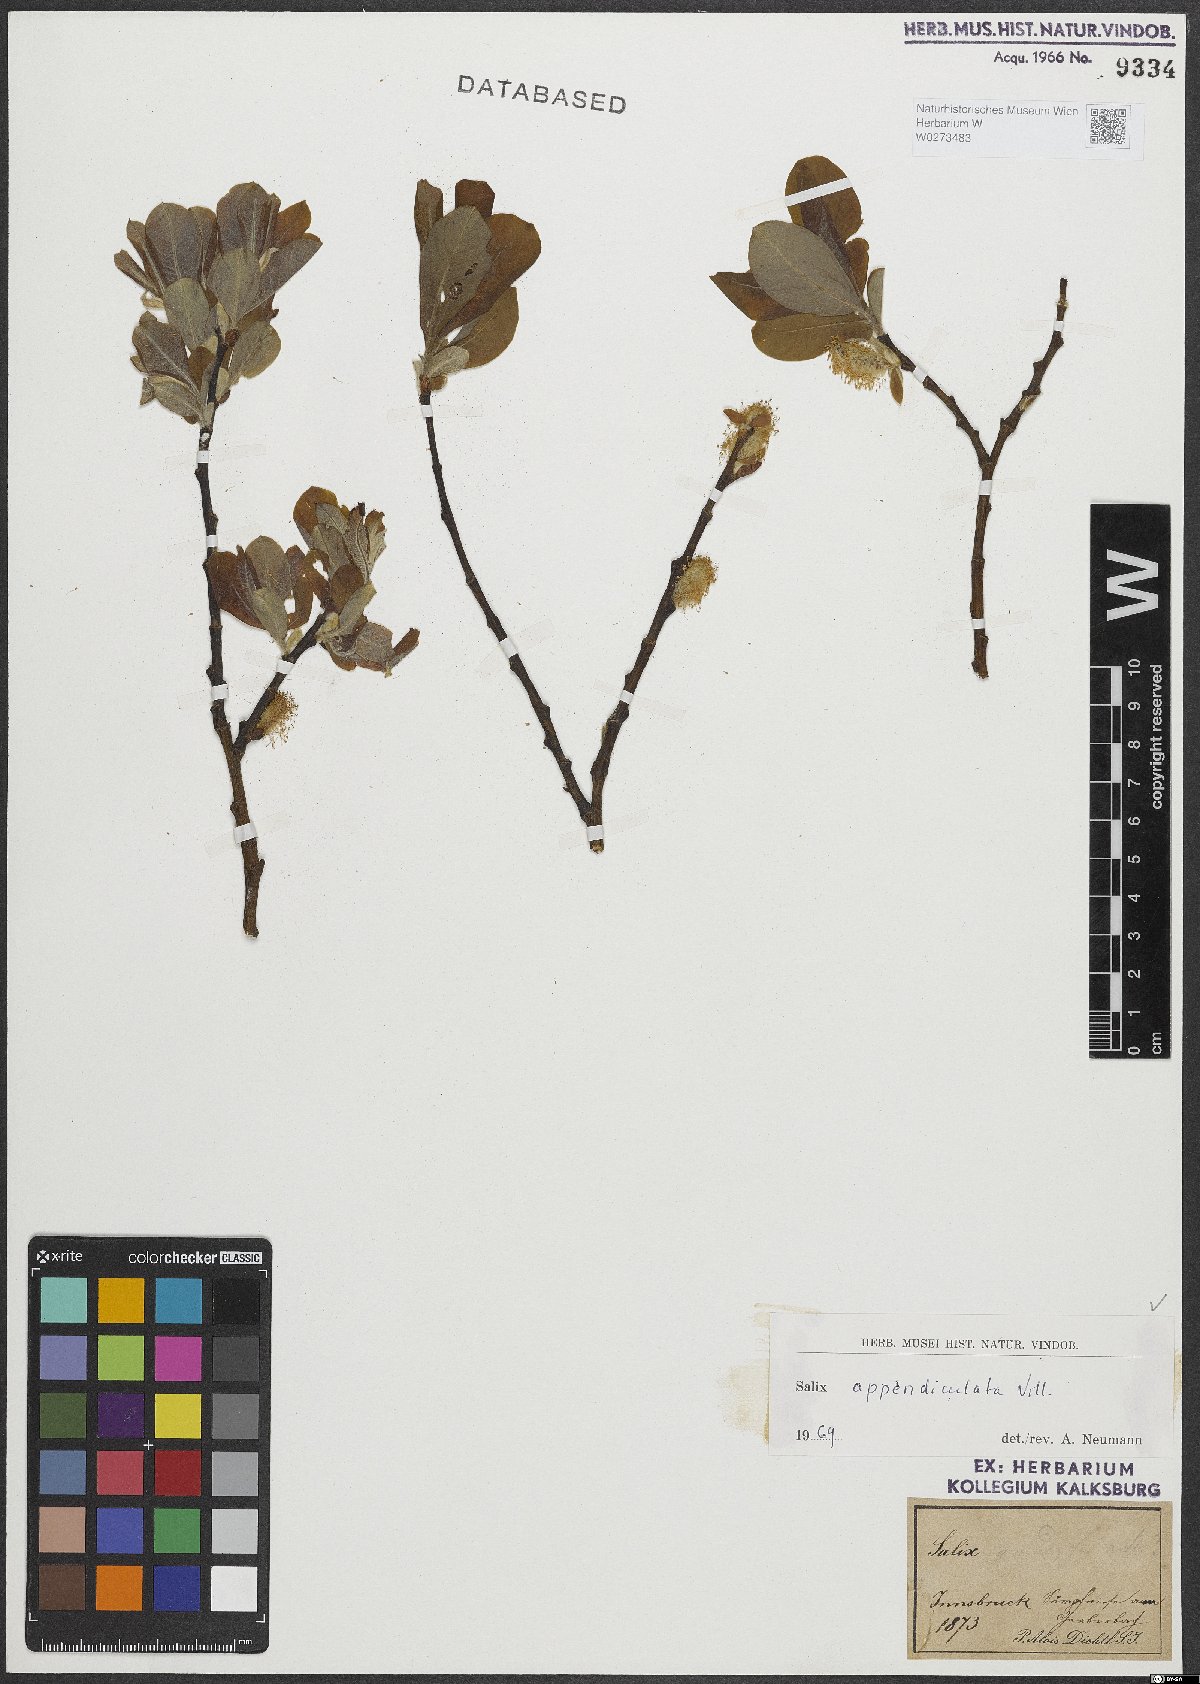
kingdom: Plantae
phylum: Tracheophyta
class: Magnoliopsida
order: Malpighiales
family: Salicaceae
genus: Salix
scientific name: Salix appendiculata
